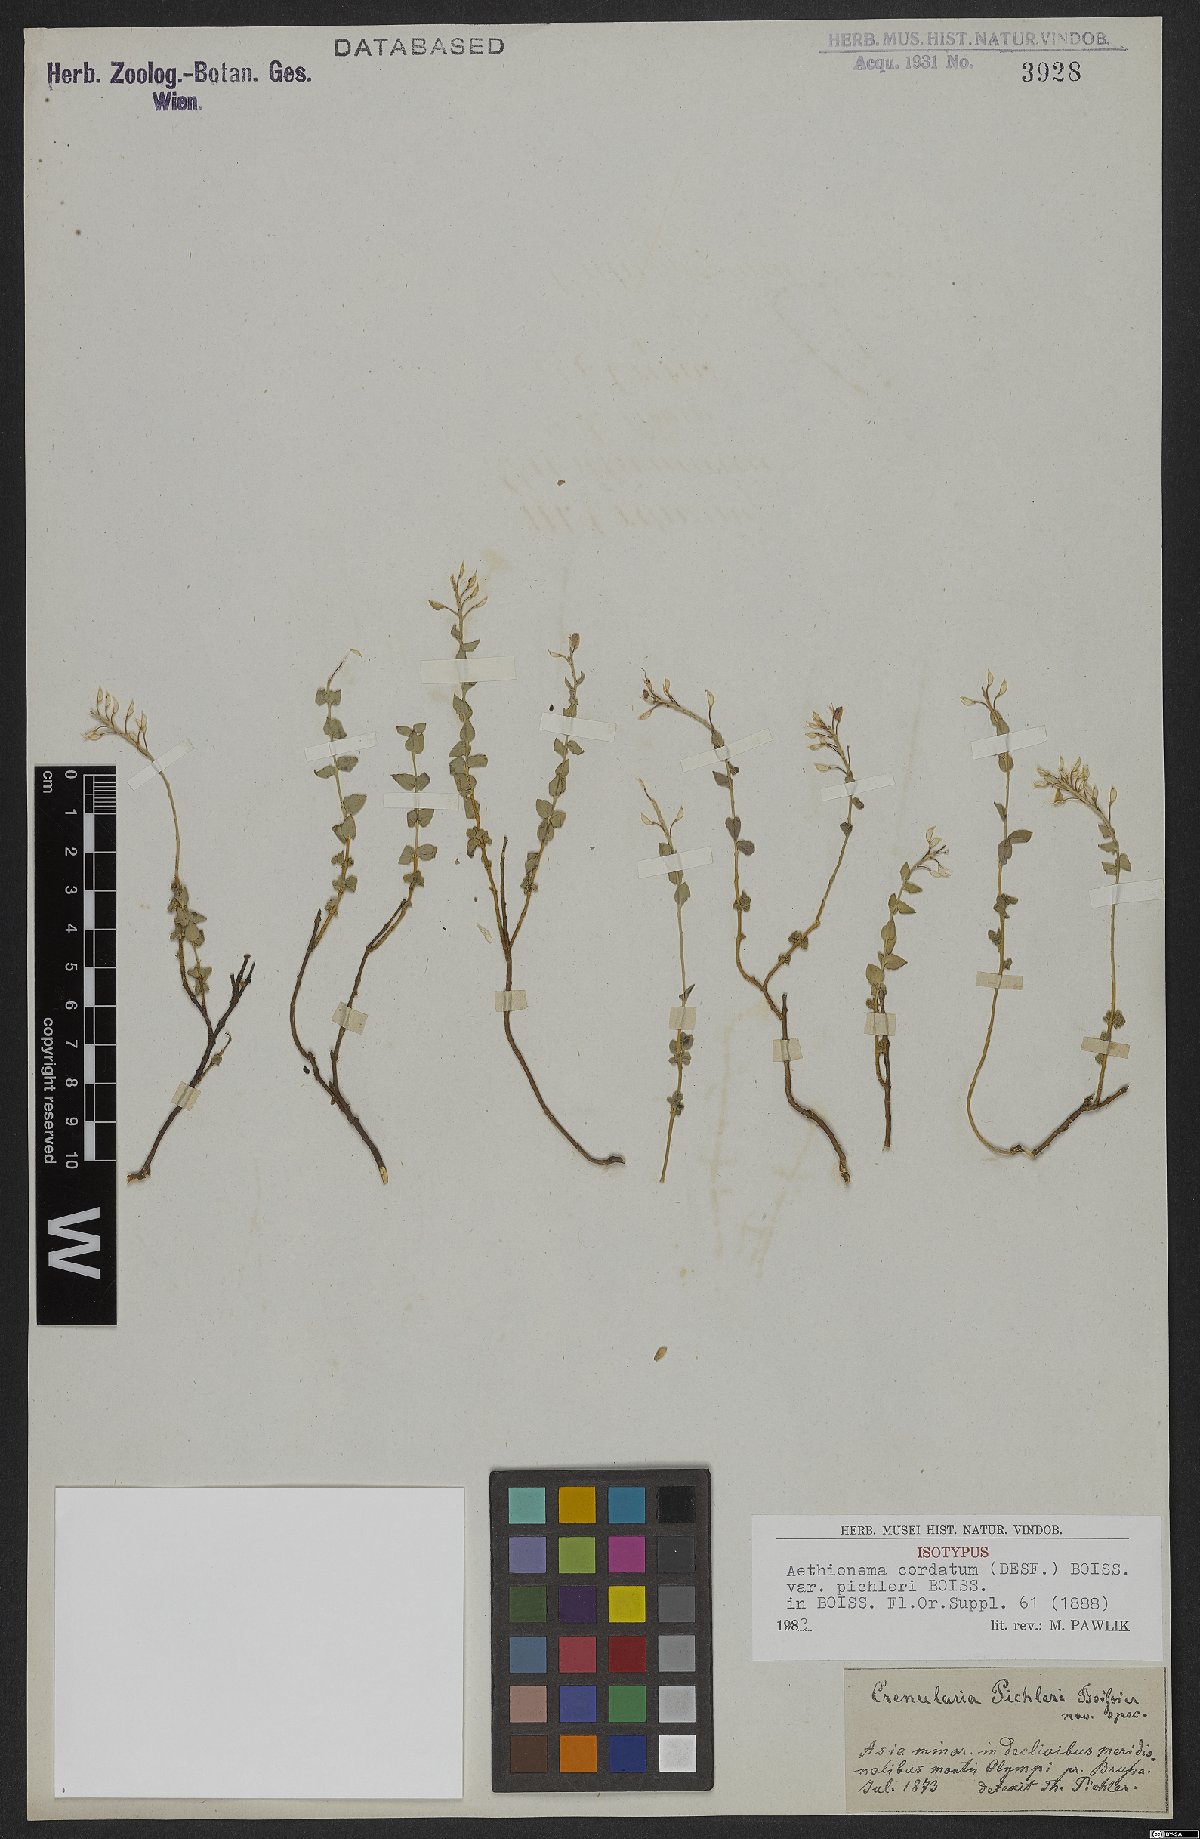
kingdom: Plantae
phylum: Tracheophyta
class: Magnoliopsida
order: Brassicales
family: Brassicaceae
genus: Aethionema
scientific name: Aethionema cordatum
